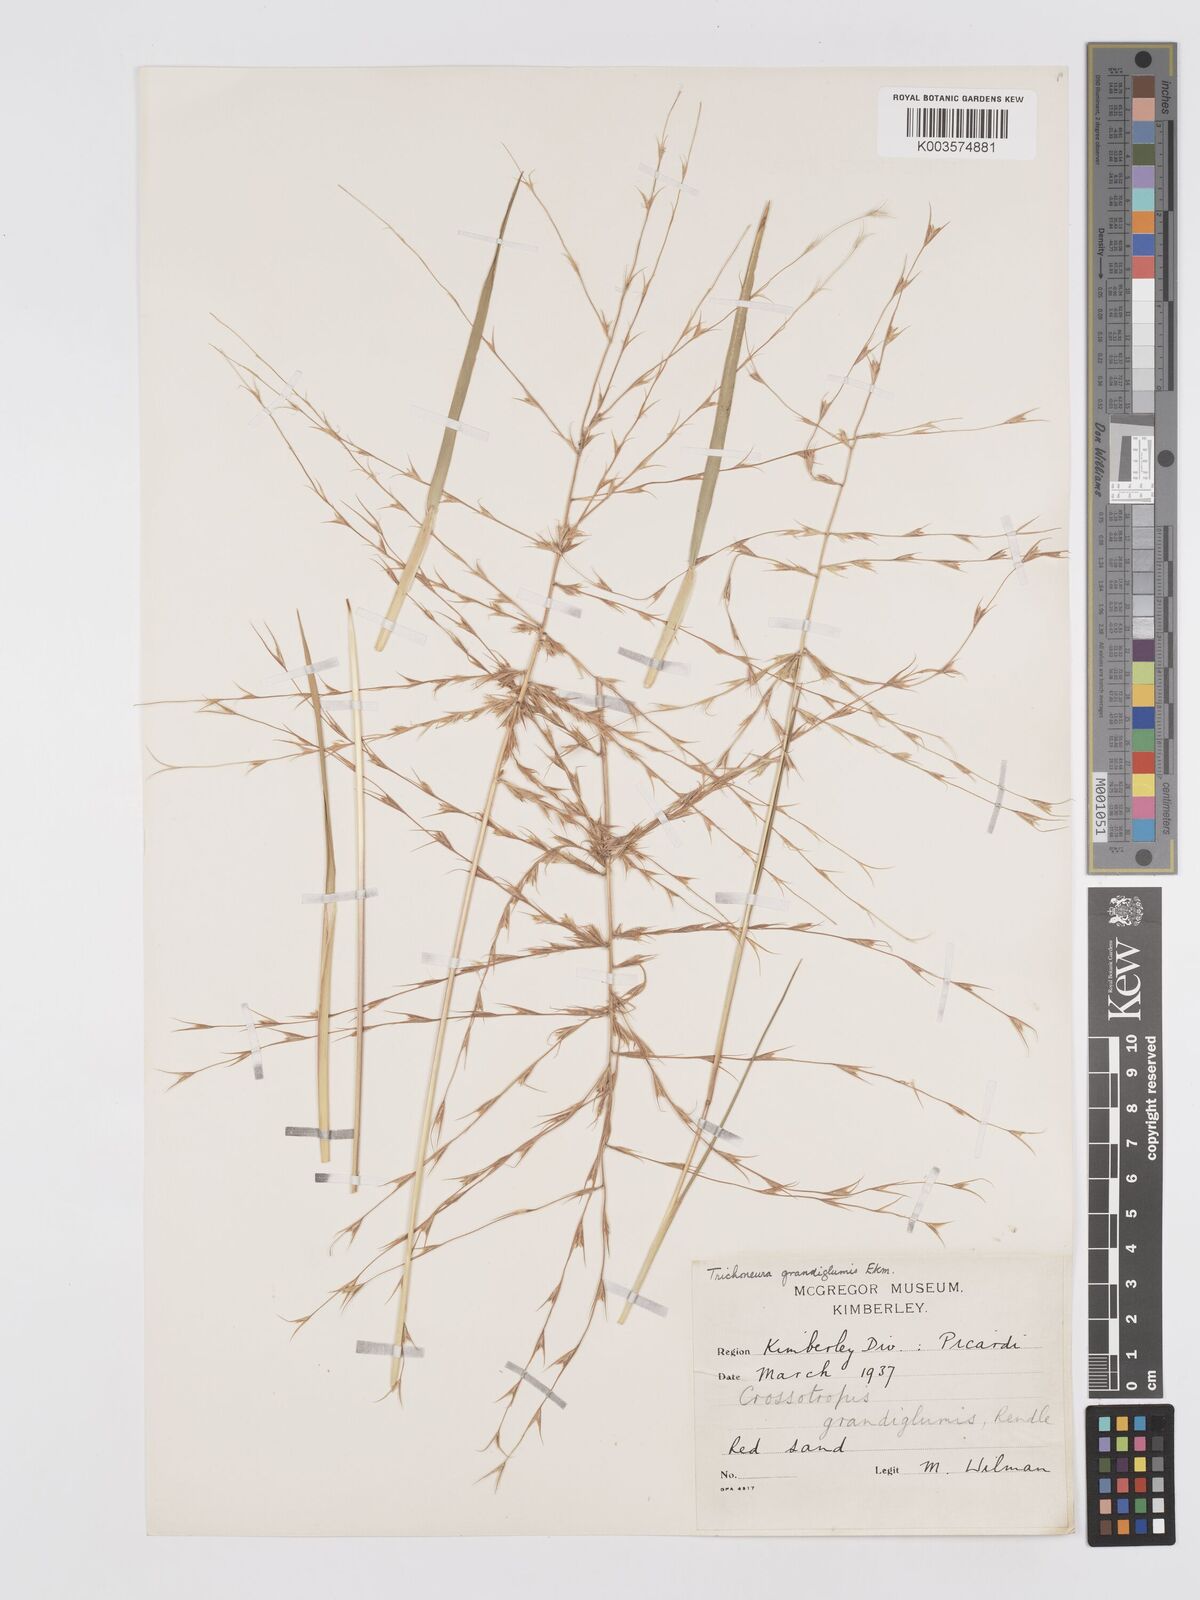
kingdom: Plantae
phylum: Tracheophyta
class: Liliopsida
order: Poales
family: Poaceae
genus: Trichoneura
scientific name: Trichoneura grandiglumis
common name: Rolling grass
